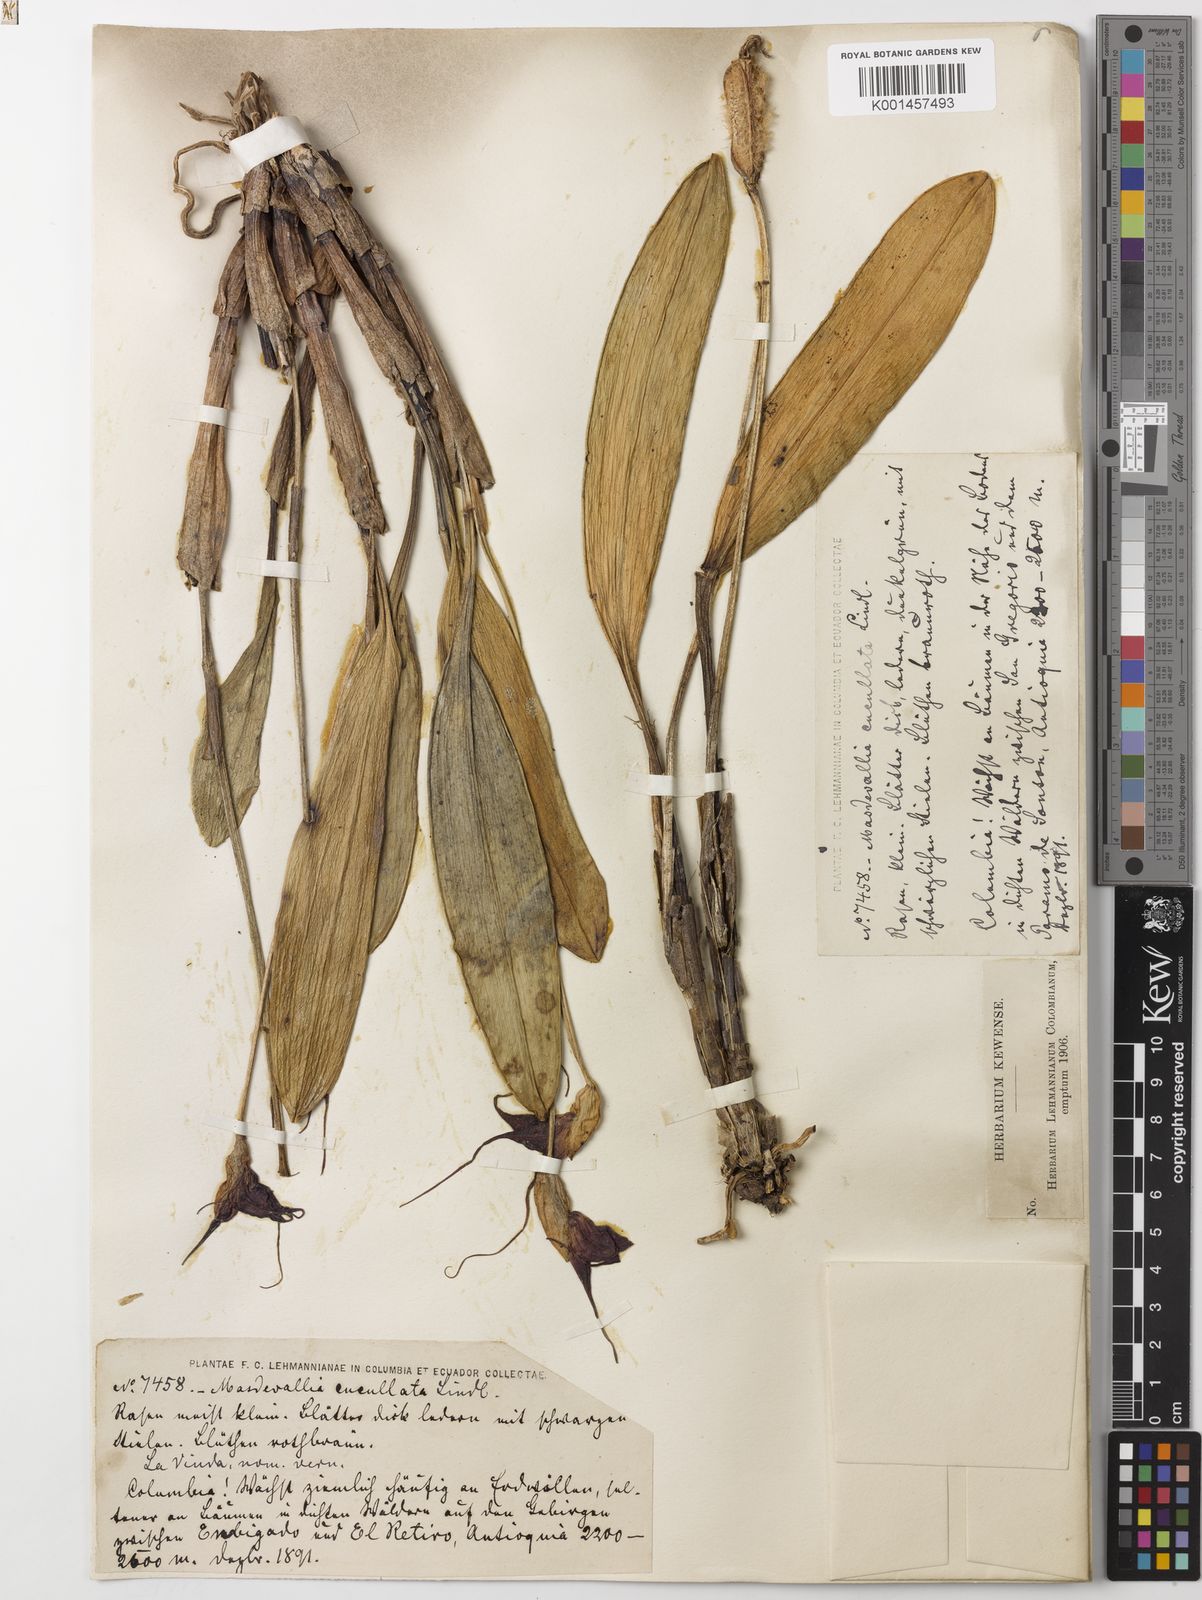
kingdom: Plantae
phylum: Tracheophyta
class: Liliopsida
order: Asparagales
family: Orchidaceae
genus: Masdevallia
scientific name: Masdevallia cucullata
